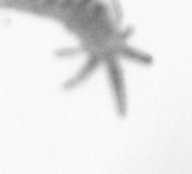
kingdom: Animalia
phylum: Annelida
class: Polychaeta
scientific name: Polychaeta
